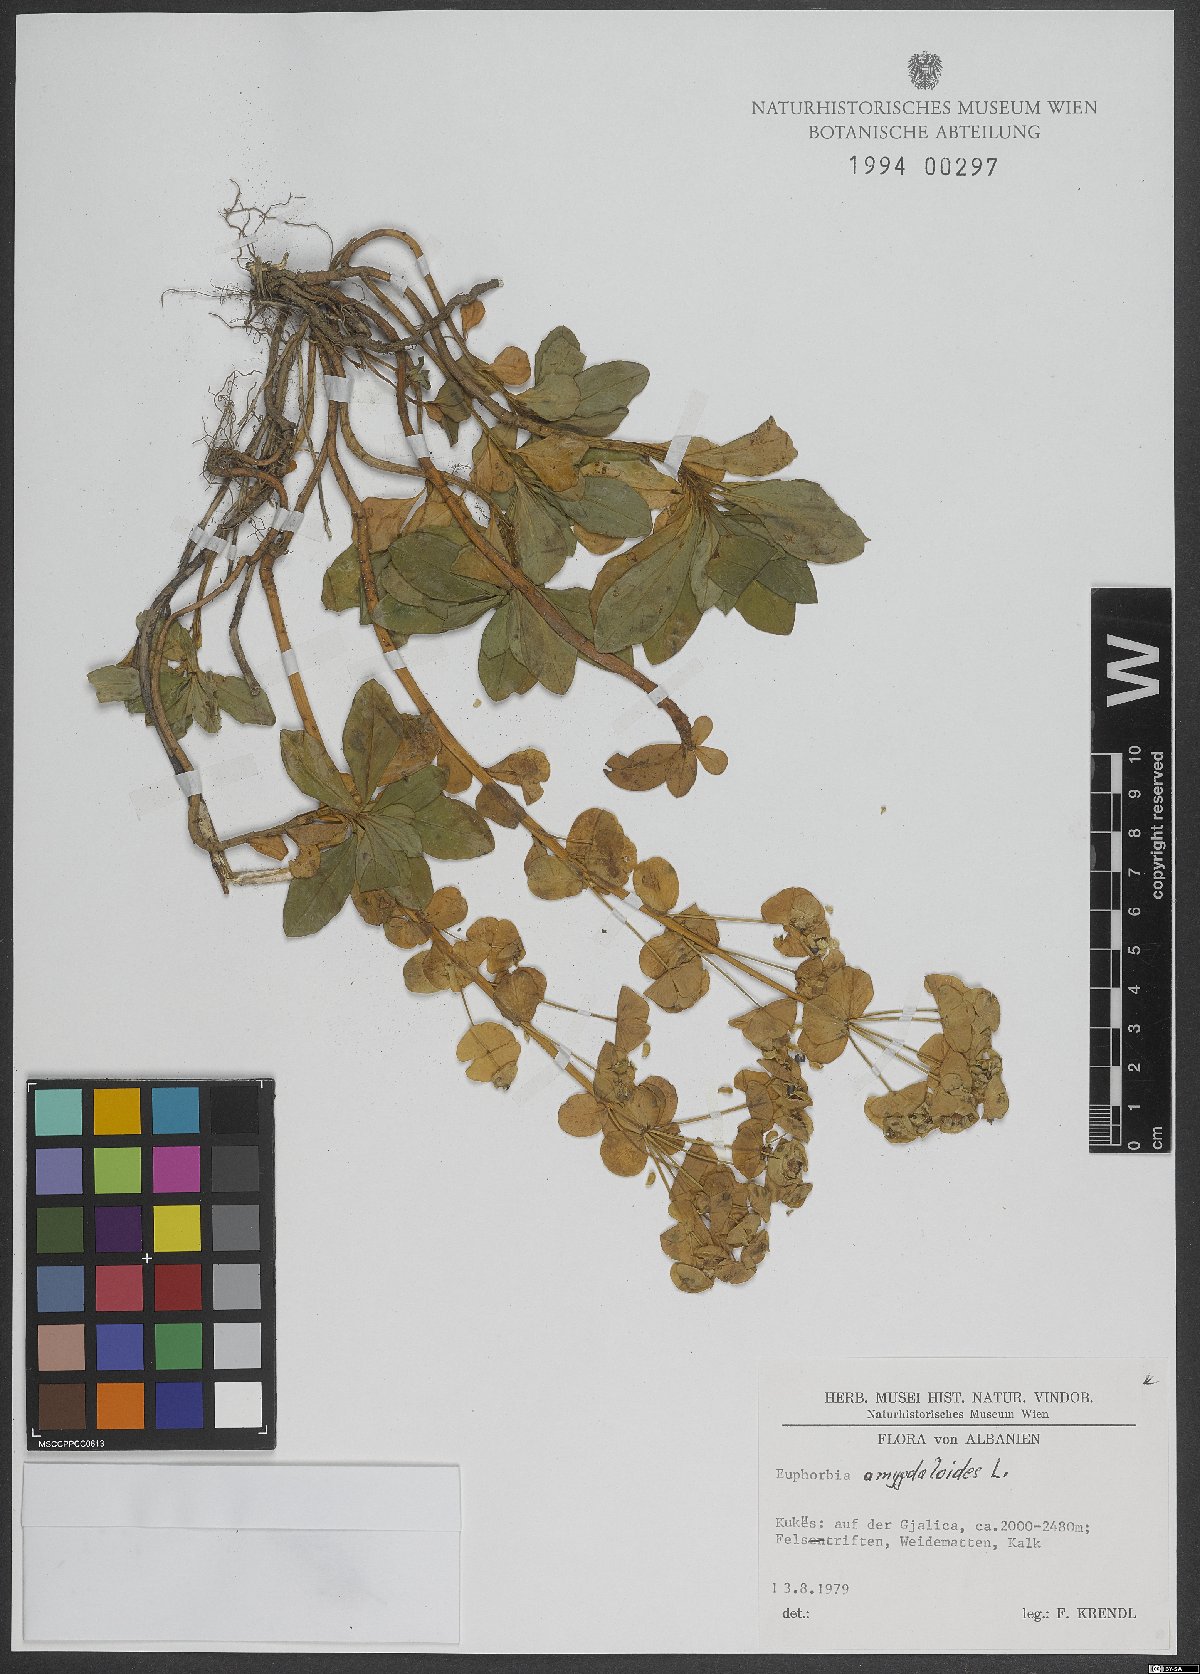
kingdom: Plantae
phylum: Tracheophyta
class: Magnoliopsida
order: Malpighiales
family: Euphorbiaceae
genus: Euphorbia
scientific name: Euphorbia amygdaloides
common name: Wood spurge
